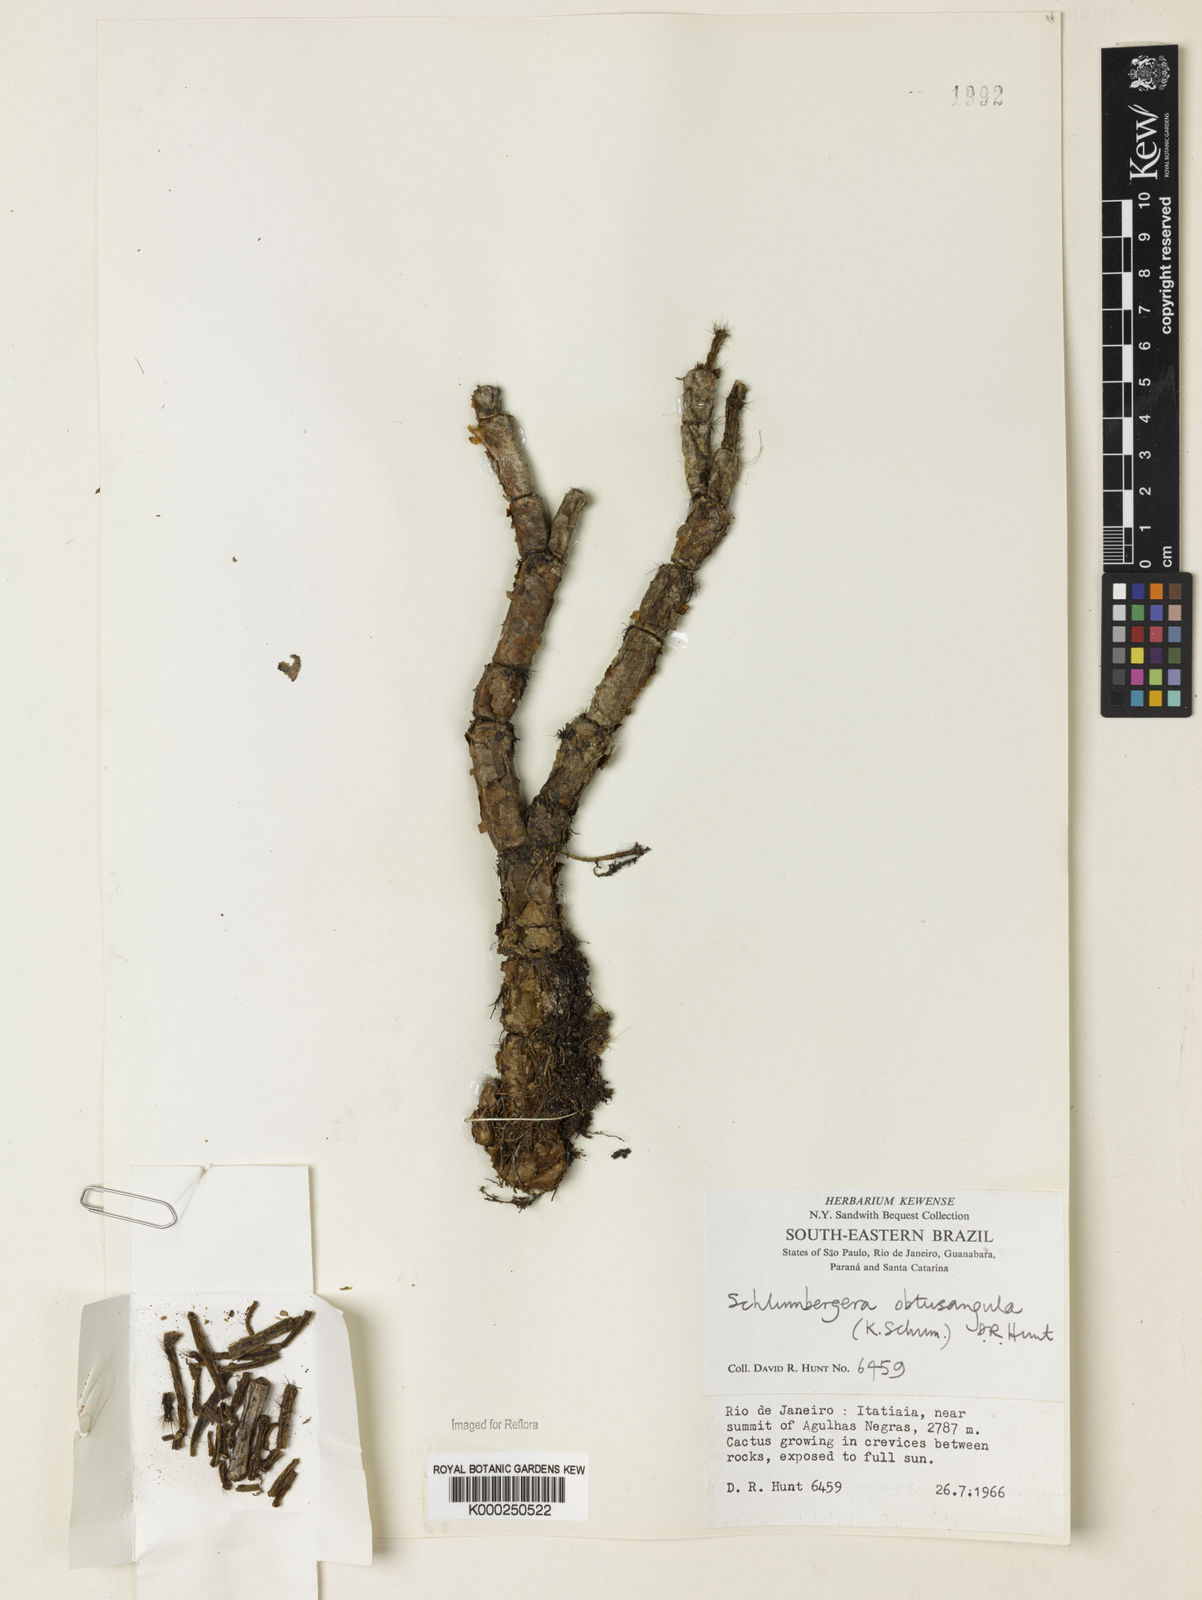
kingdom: Plantae
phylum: Tracheophyta
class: Magnoliopsida
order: Caryophyllales
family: Cactaceae
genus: Schlumbergera
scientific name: Schlumbergera
